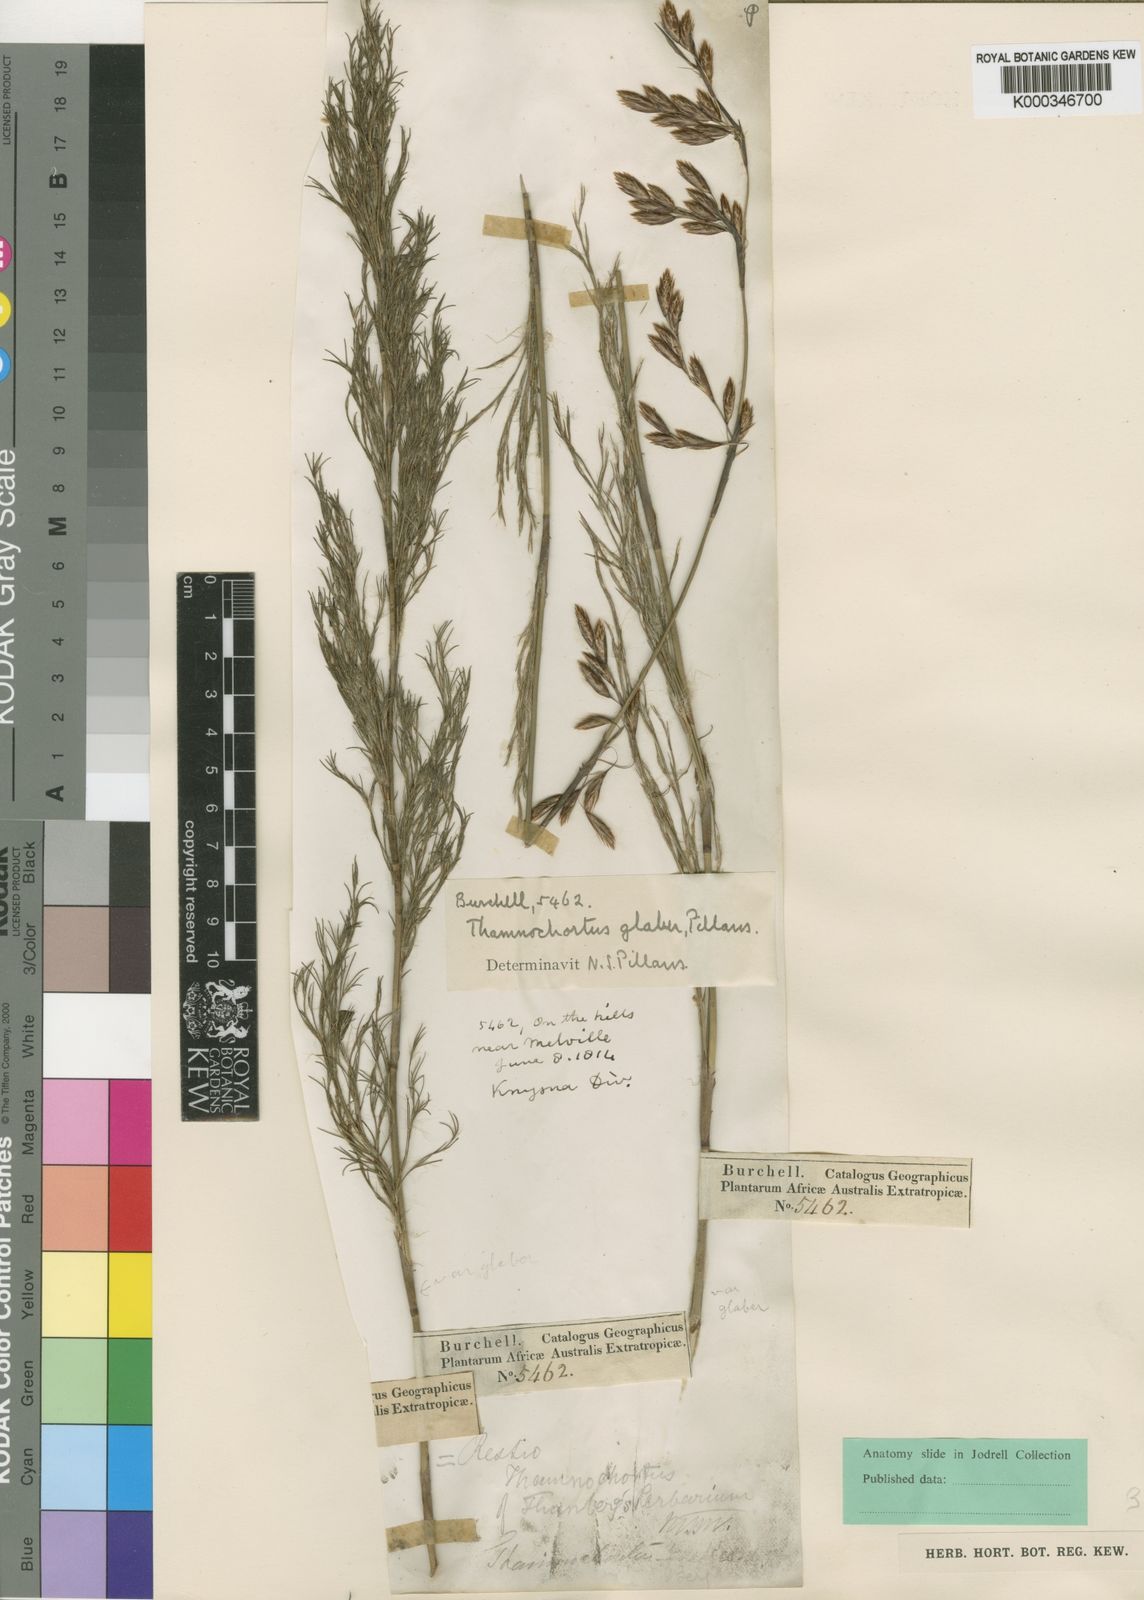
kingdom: Plantae
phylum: Tracheophyta
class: Liliopsida
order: Poales
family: Restionaceae
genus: Thamnochortus
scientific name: Thamnochortus glaber
